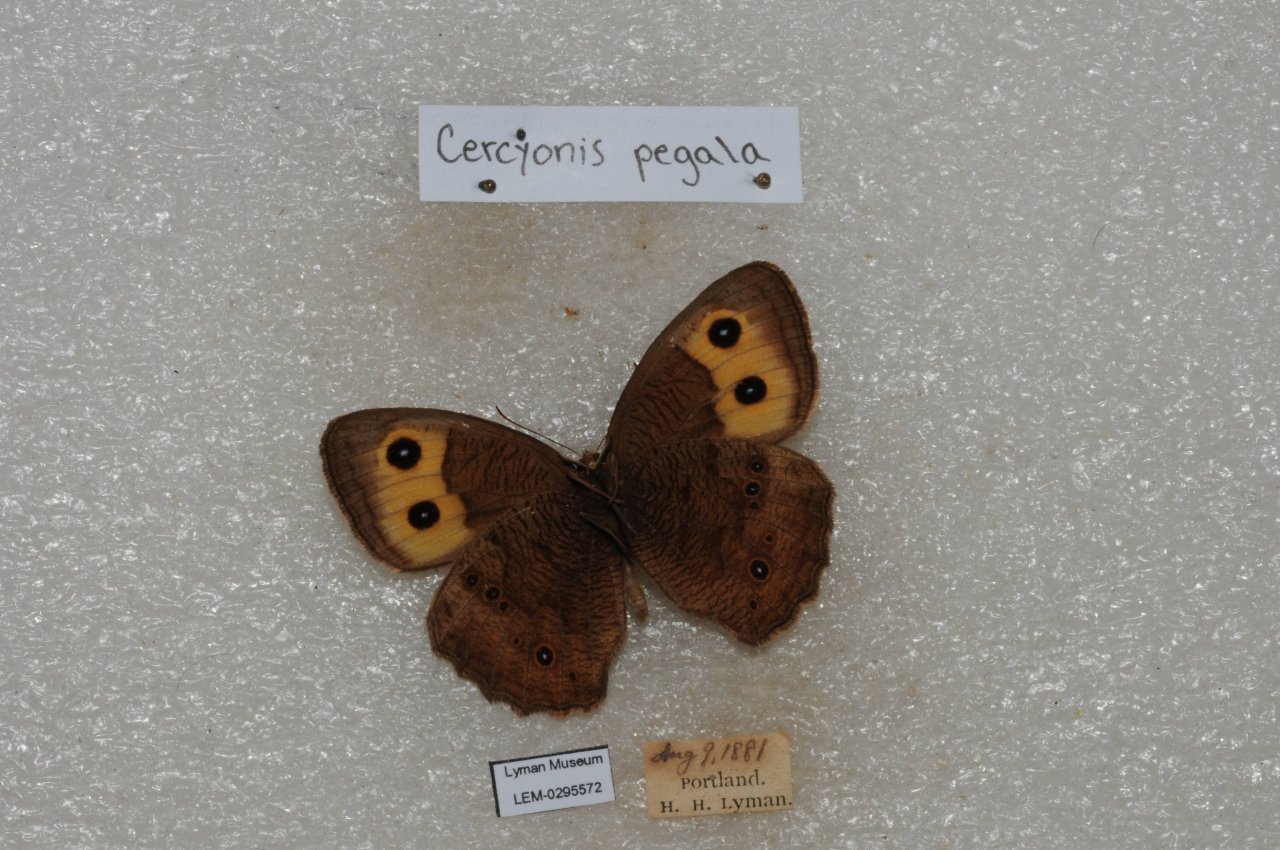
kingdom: Animalia
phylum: Arthropoda
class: Insecta
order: Lepidoptera
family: Nymphalidae
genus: Cercyonis
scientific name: Cercyonis pegala
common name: Common Wood-Nymph
